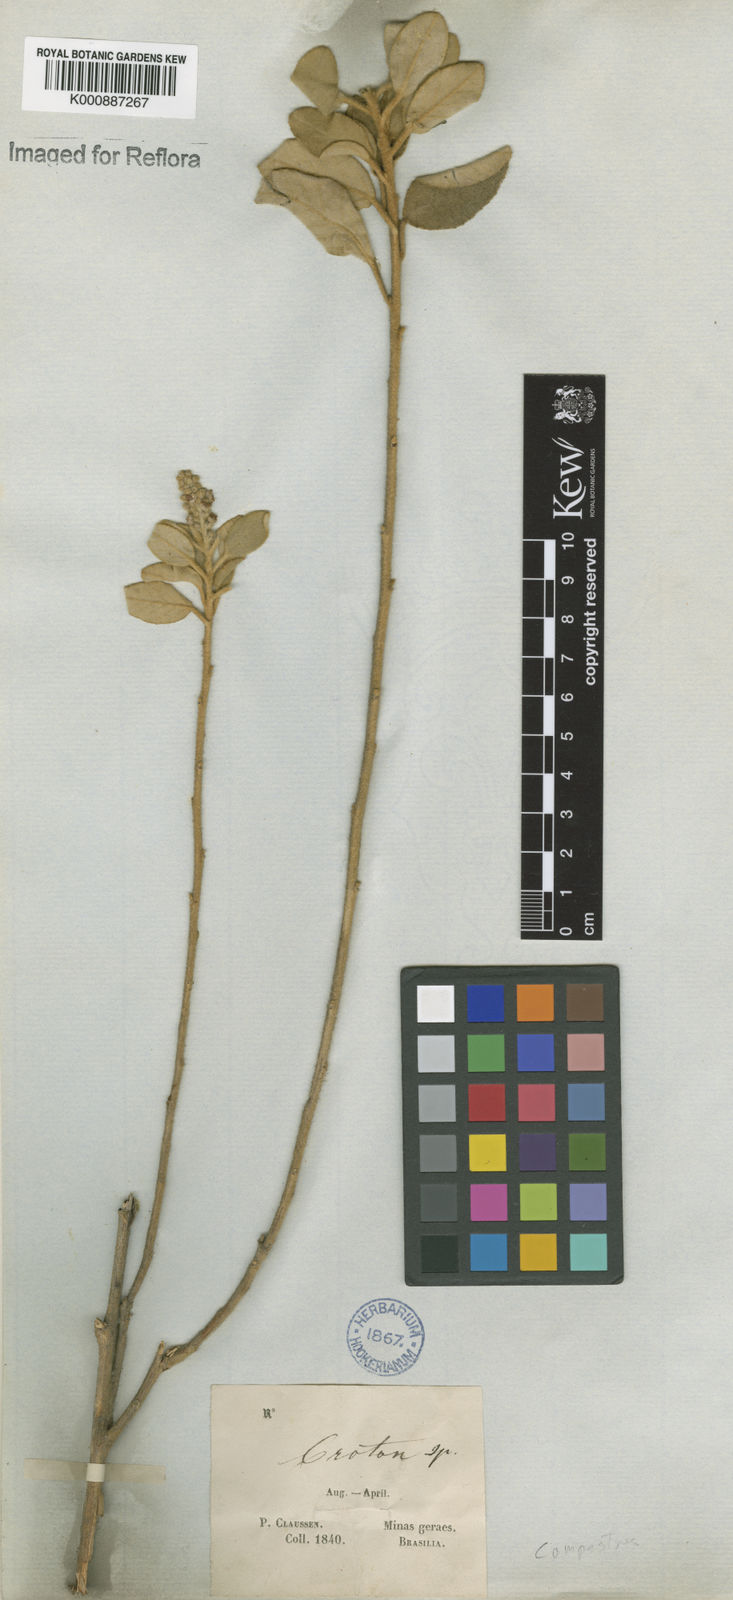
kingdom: Plantae
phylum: Tracheophyta
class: Magnoliopsida
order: Malpighiales
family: Euphorbiaceae
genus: Croton
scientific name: Croton campestris
